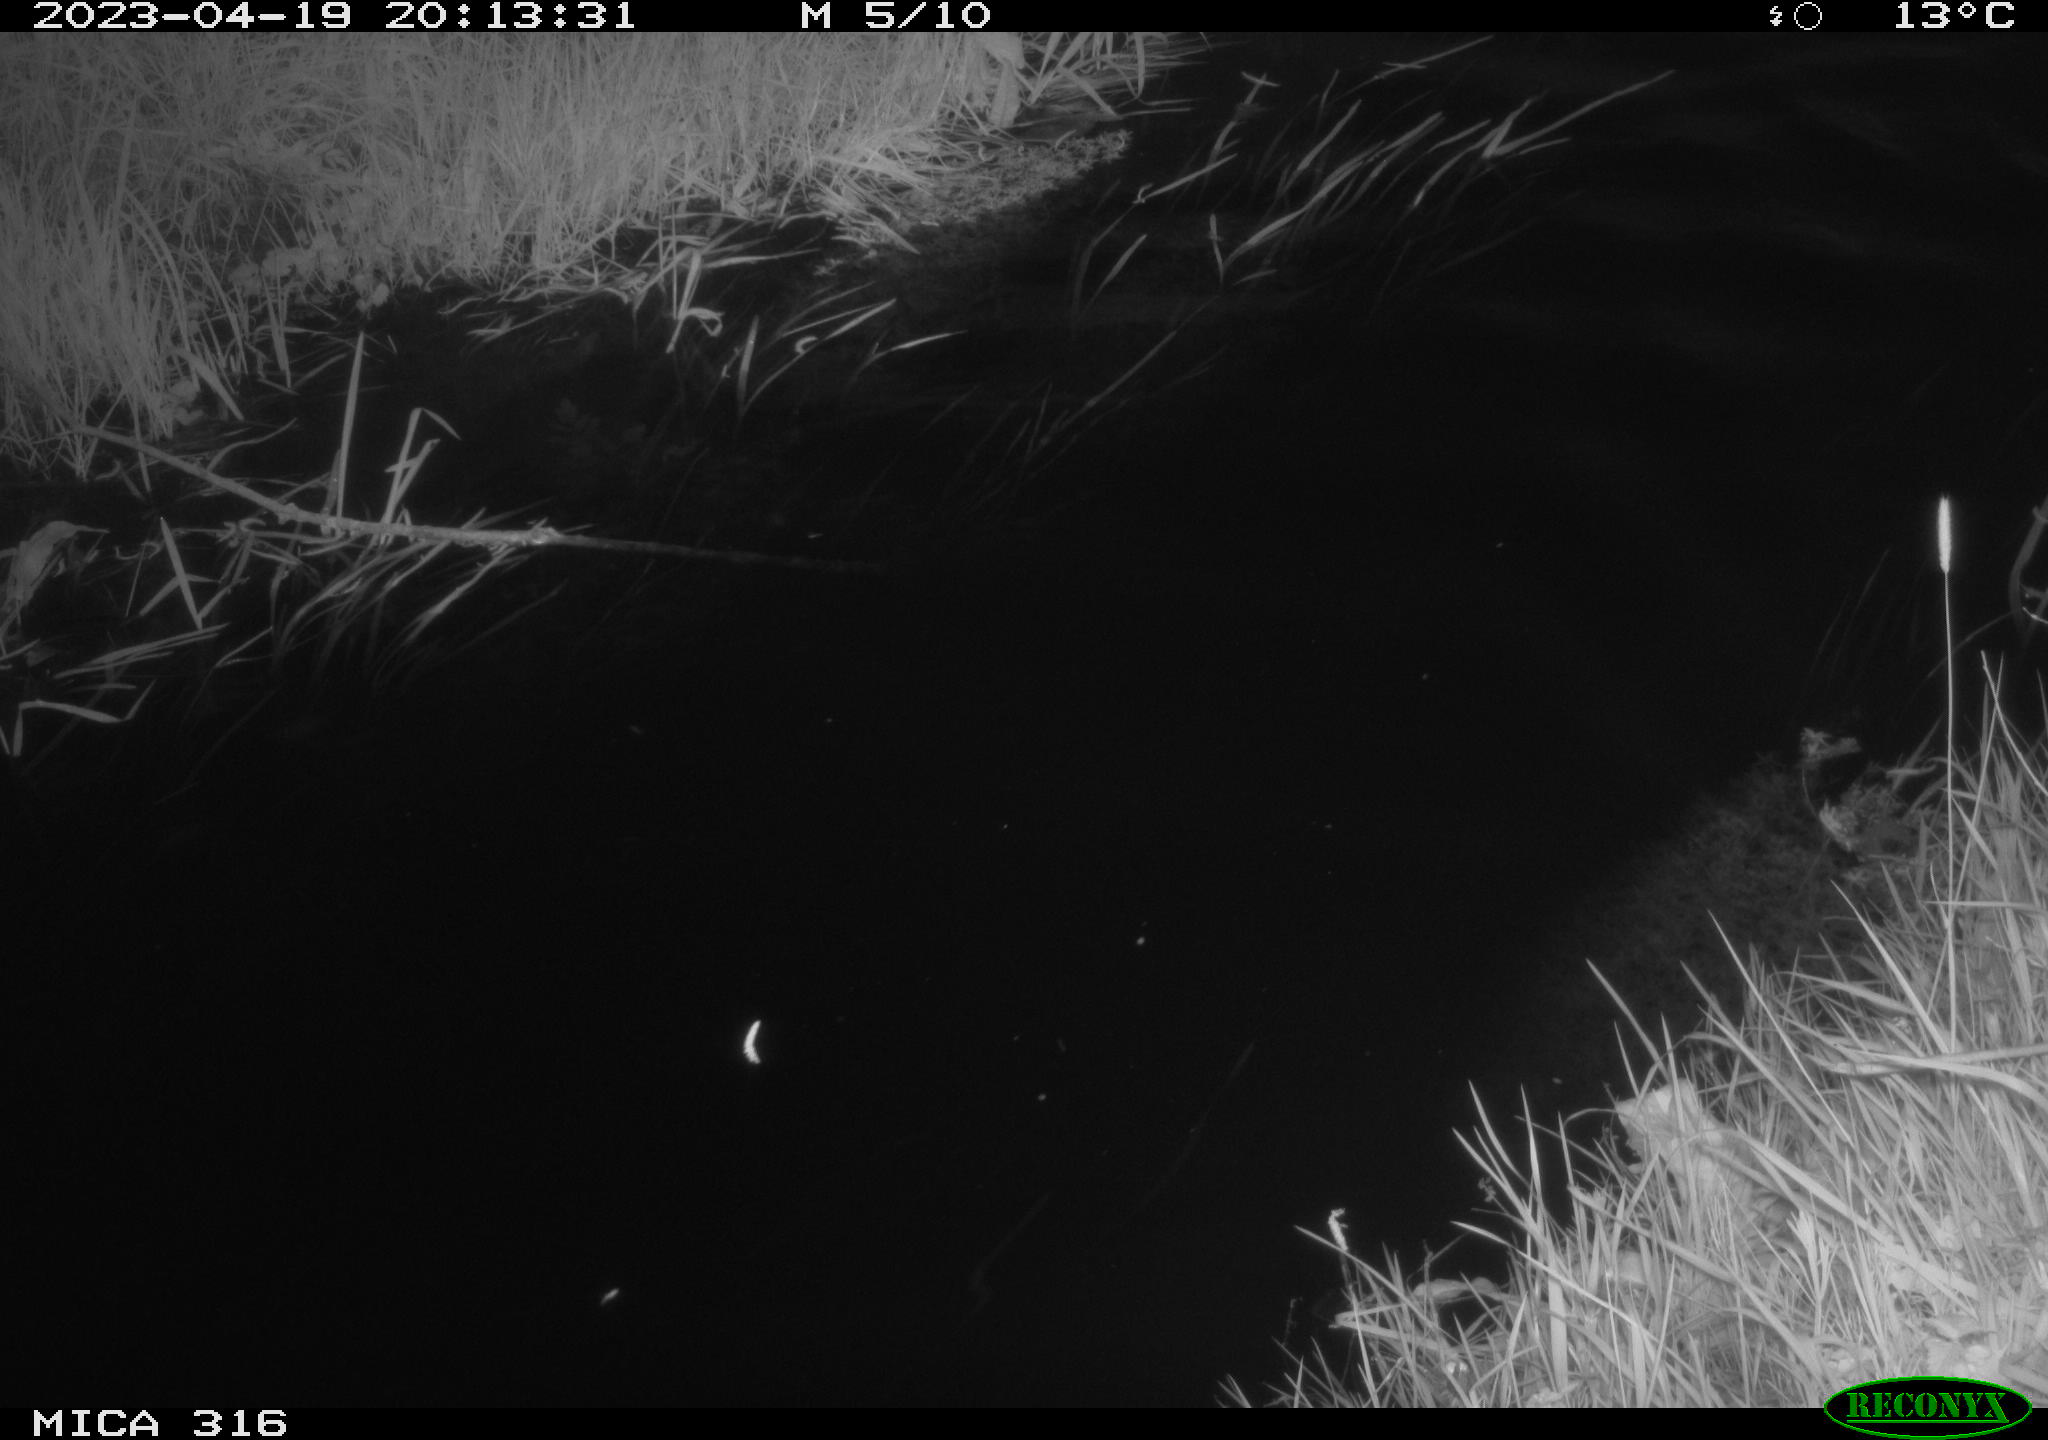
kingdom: Animalia
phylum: Chordata
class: Aves
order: Anseriformes
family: Anatidae
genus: Anas
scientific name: Anas
